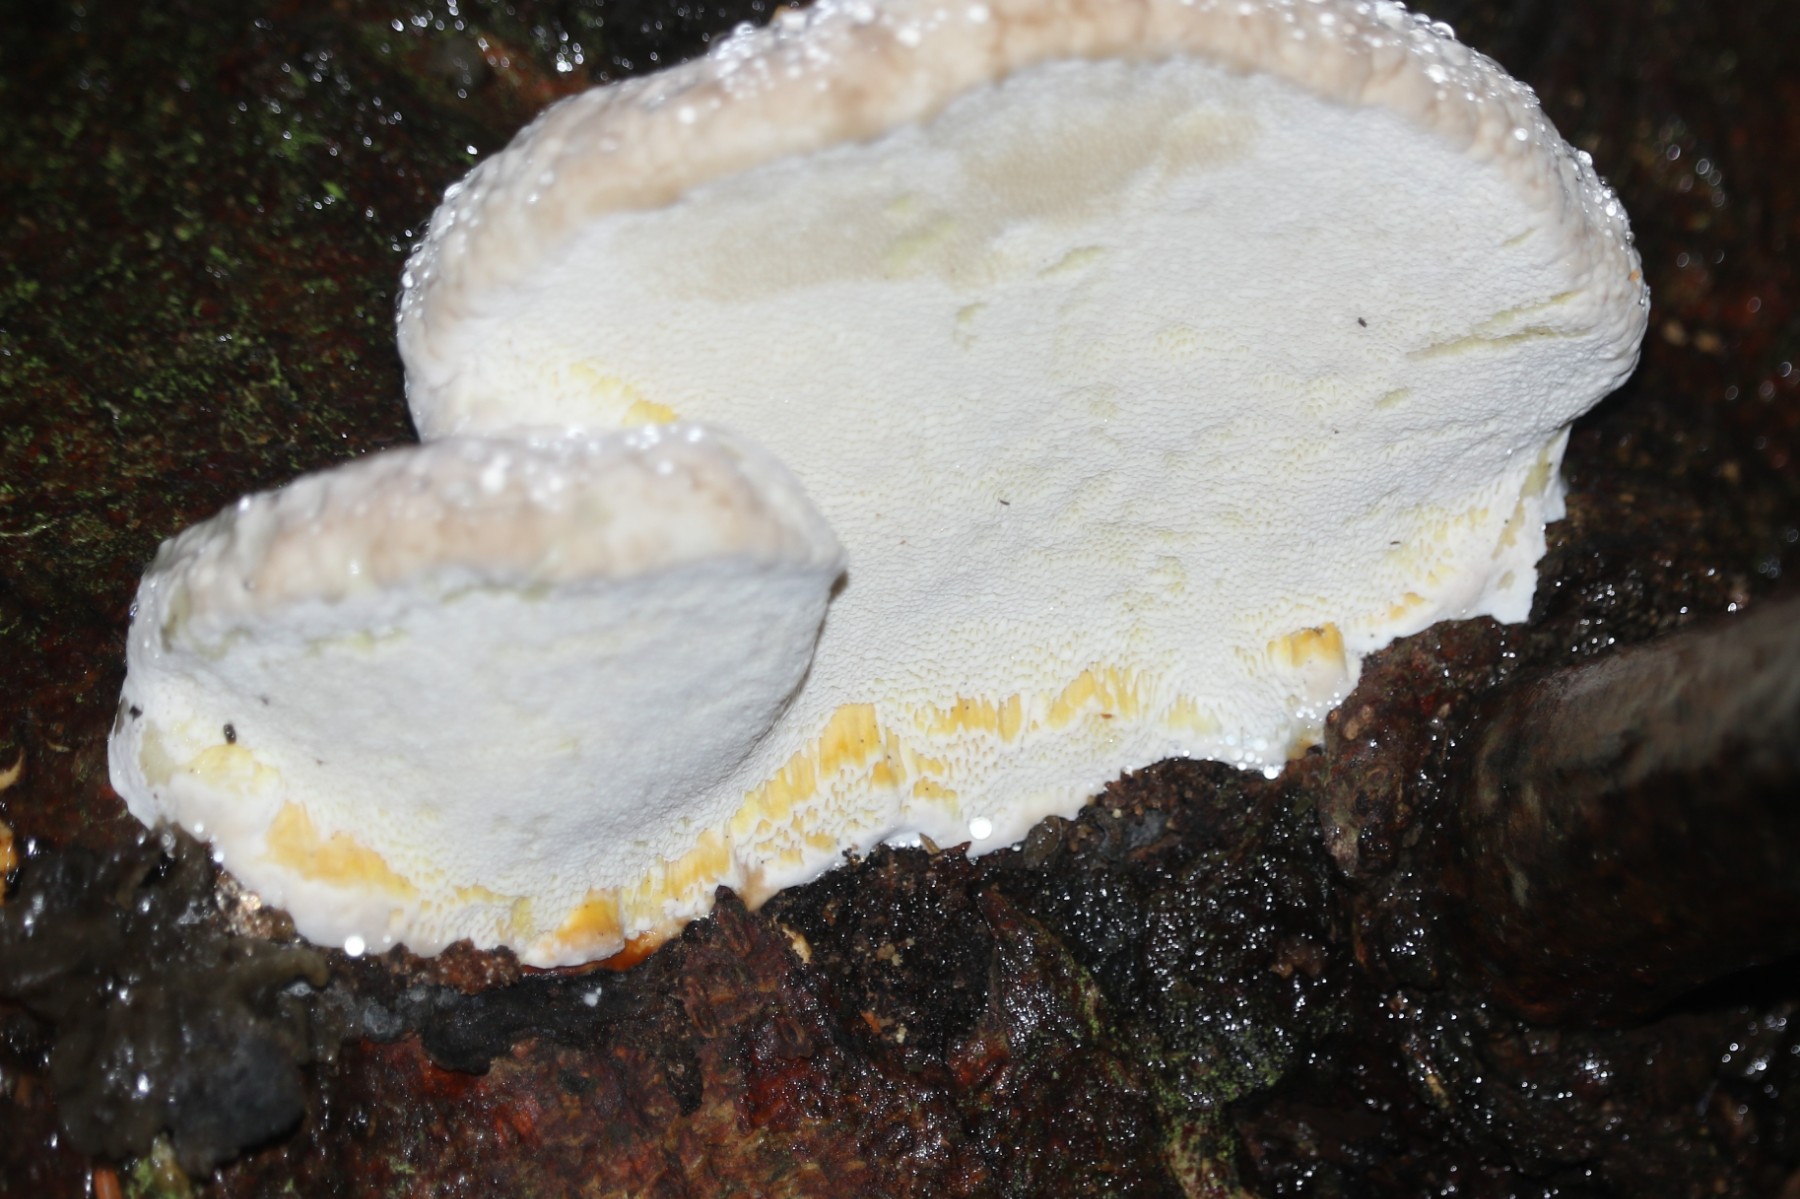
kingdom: Fungi
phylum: Basidiomycota
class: Agaricomycetes
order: Polyporales
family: Fomitopsidaceae
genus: Fomitopsis
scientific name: Fomitopsis pinicola
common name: randbæltet hovporesvamp
